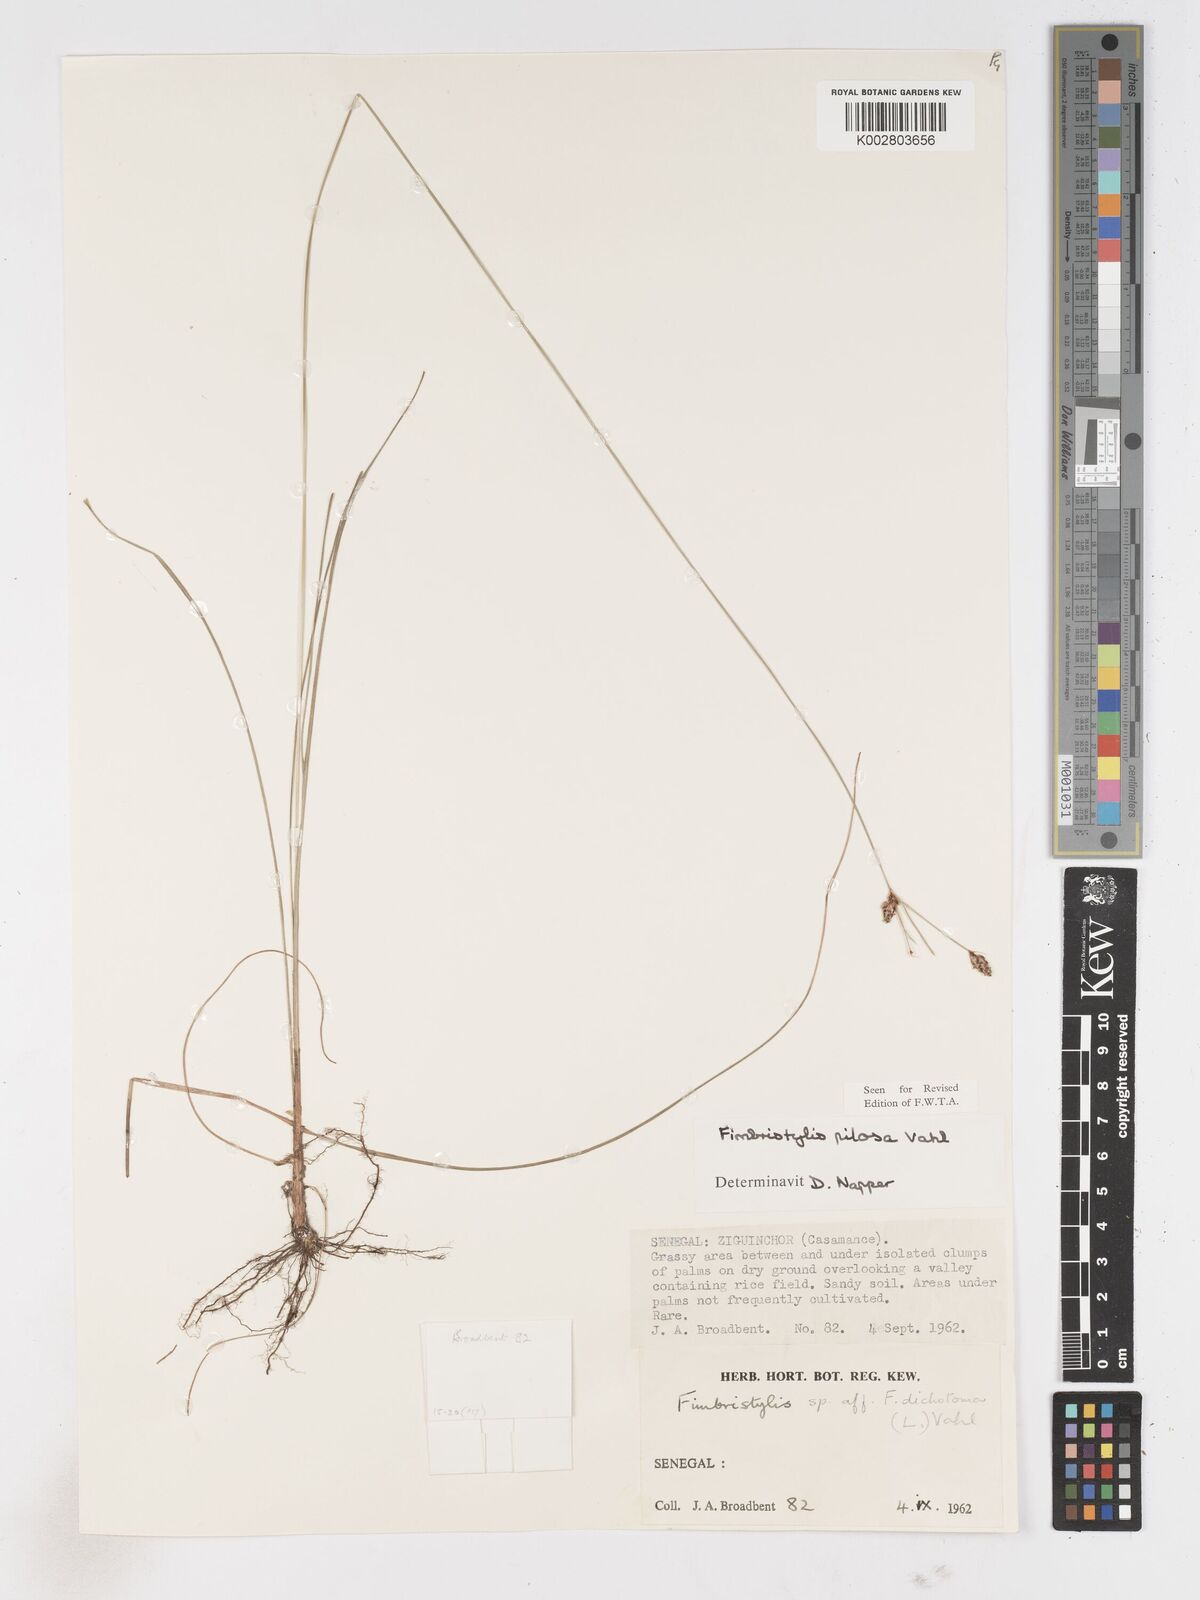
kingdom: Plantae
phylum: Tracheophyta
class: Liliopsida
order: Poales
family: Cyperaceae
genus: Fimbristylis
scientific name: Fimbristylis pilosa
